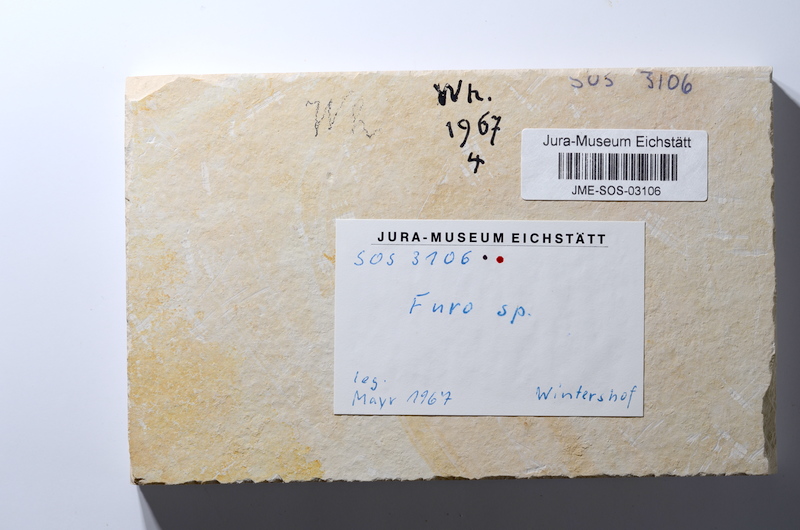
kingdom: Animalia
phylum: Chordata
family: Ophiopsiellidae
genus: Furo
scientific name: Furo longiserratus
